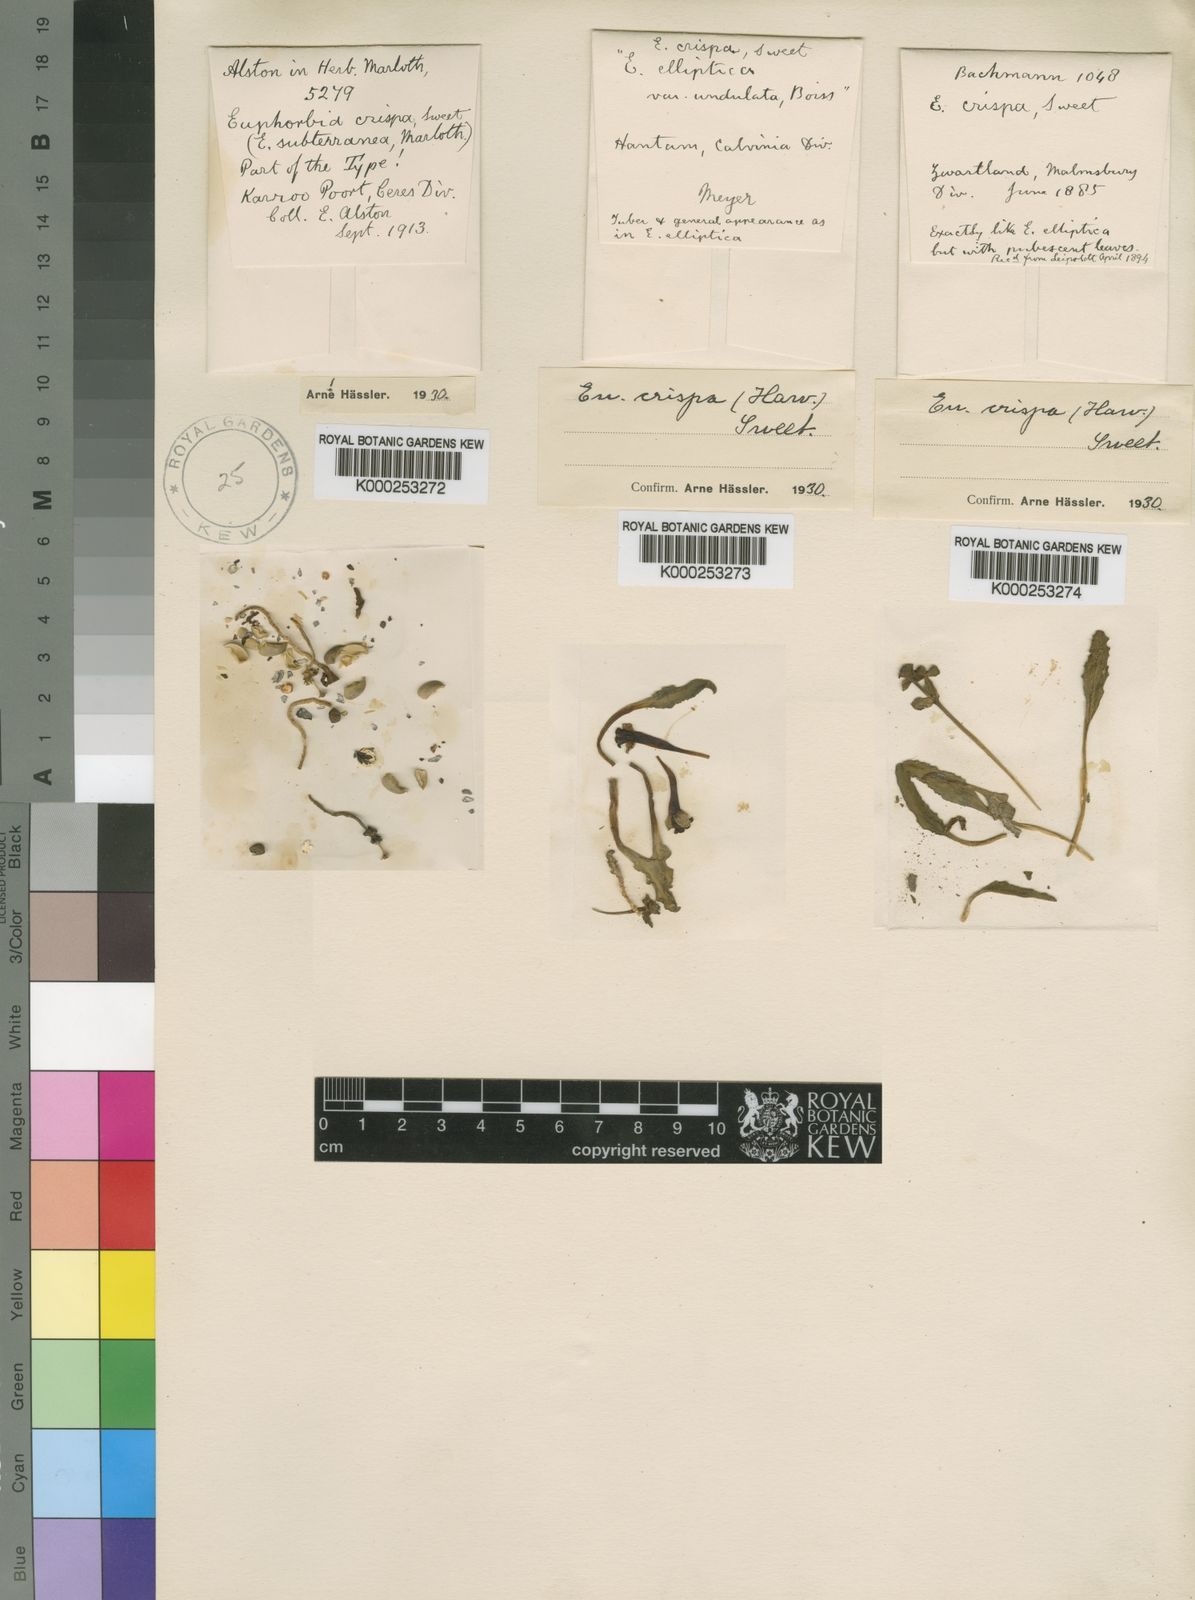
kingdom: Plantae
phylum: Tracheophyta
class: Magnoliopsida
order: Malpighiales
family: Euphorbiaceae
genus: Euphorbia
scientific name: Euphorbia tuberosa
